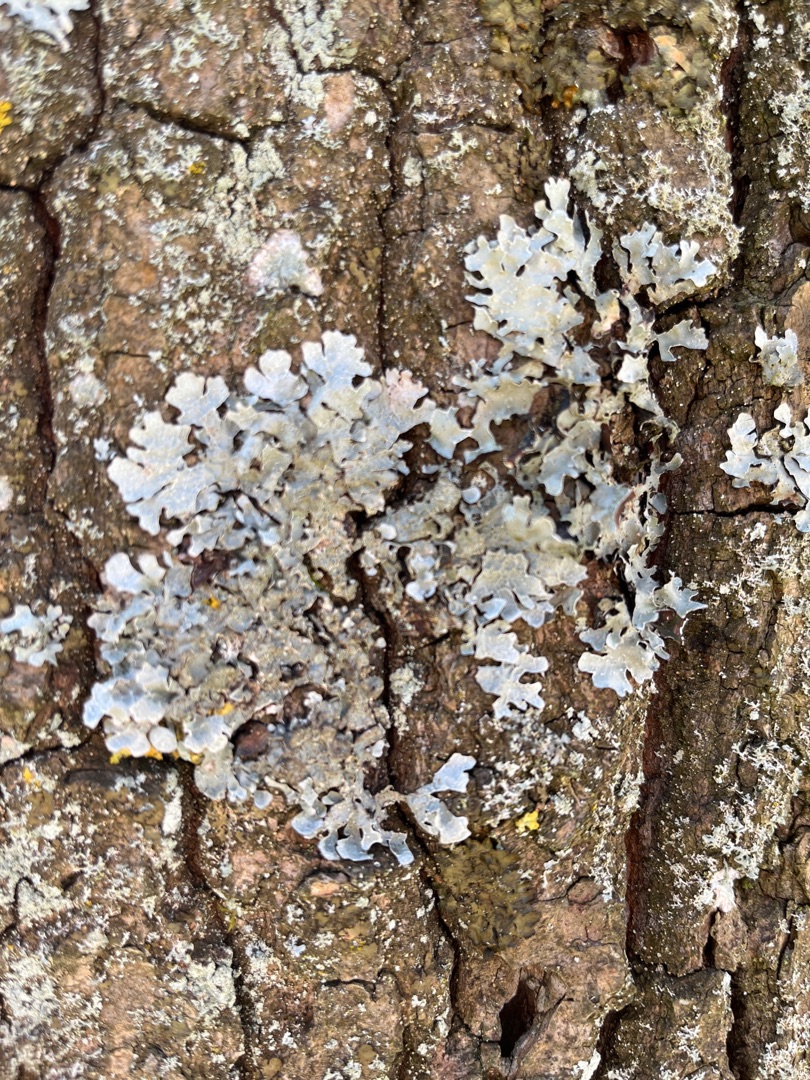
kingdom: Fungi
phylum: Ascomycota
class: Lecanoromycetes
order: Lecanorales
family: Parmeliaceae
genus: Parmelia
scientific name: Parmelia sulcata
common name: Rynket skållav
